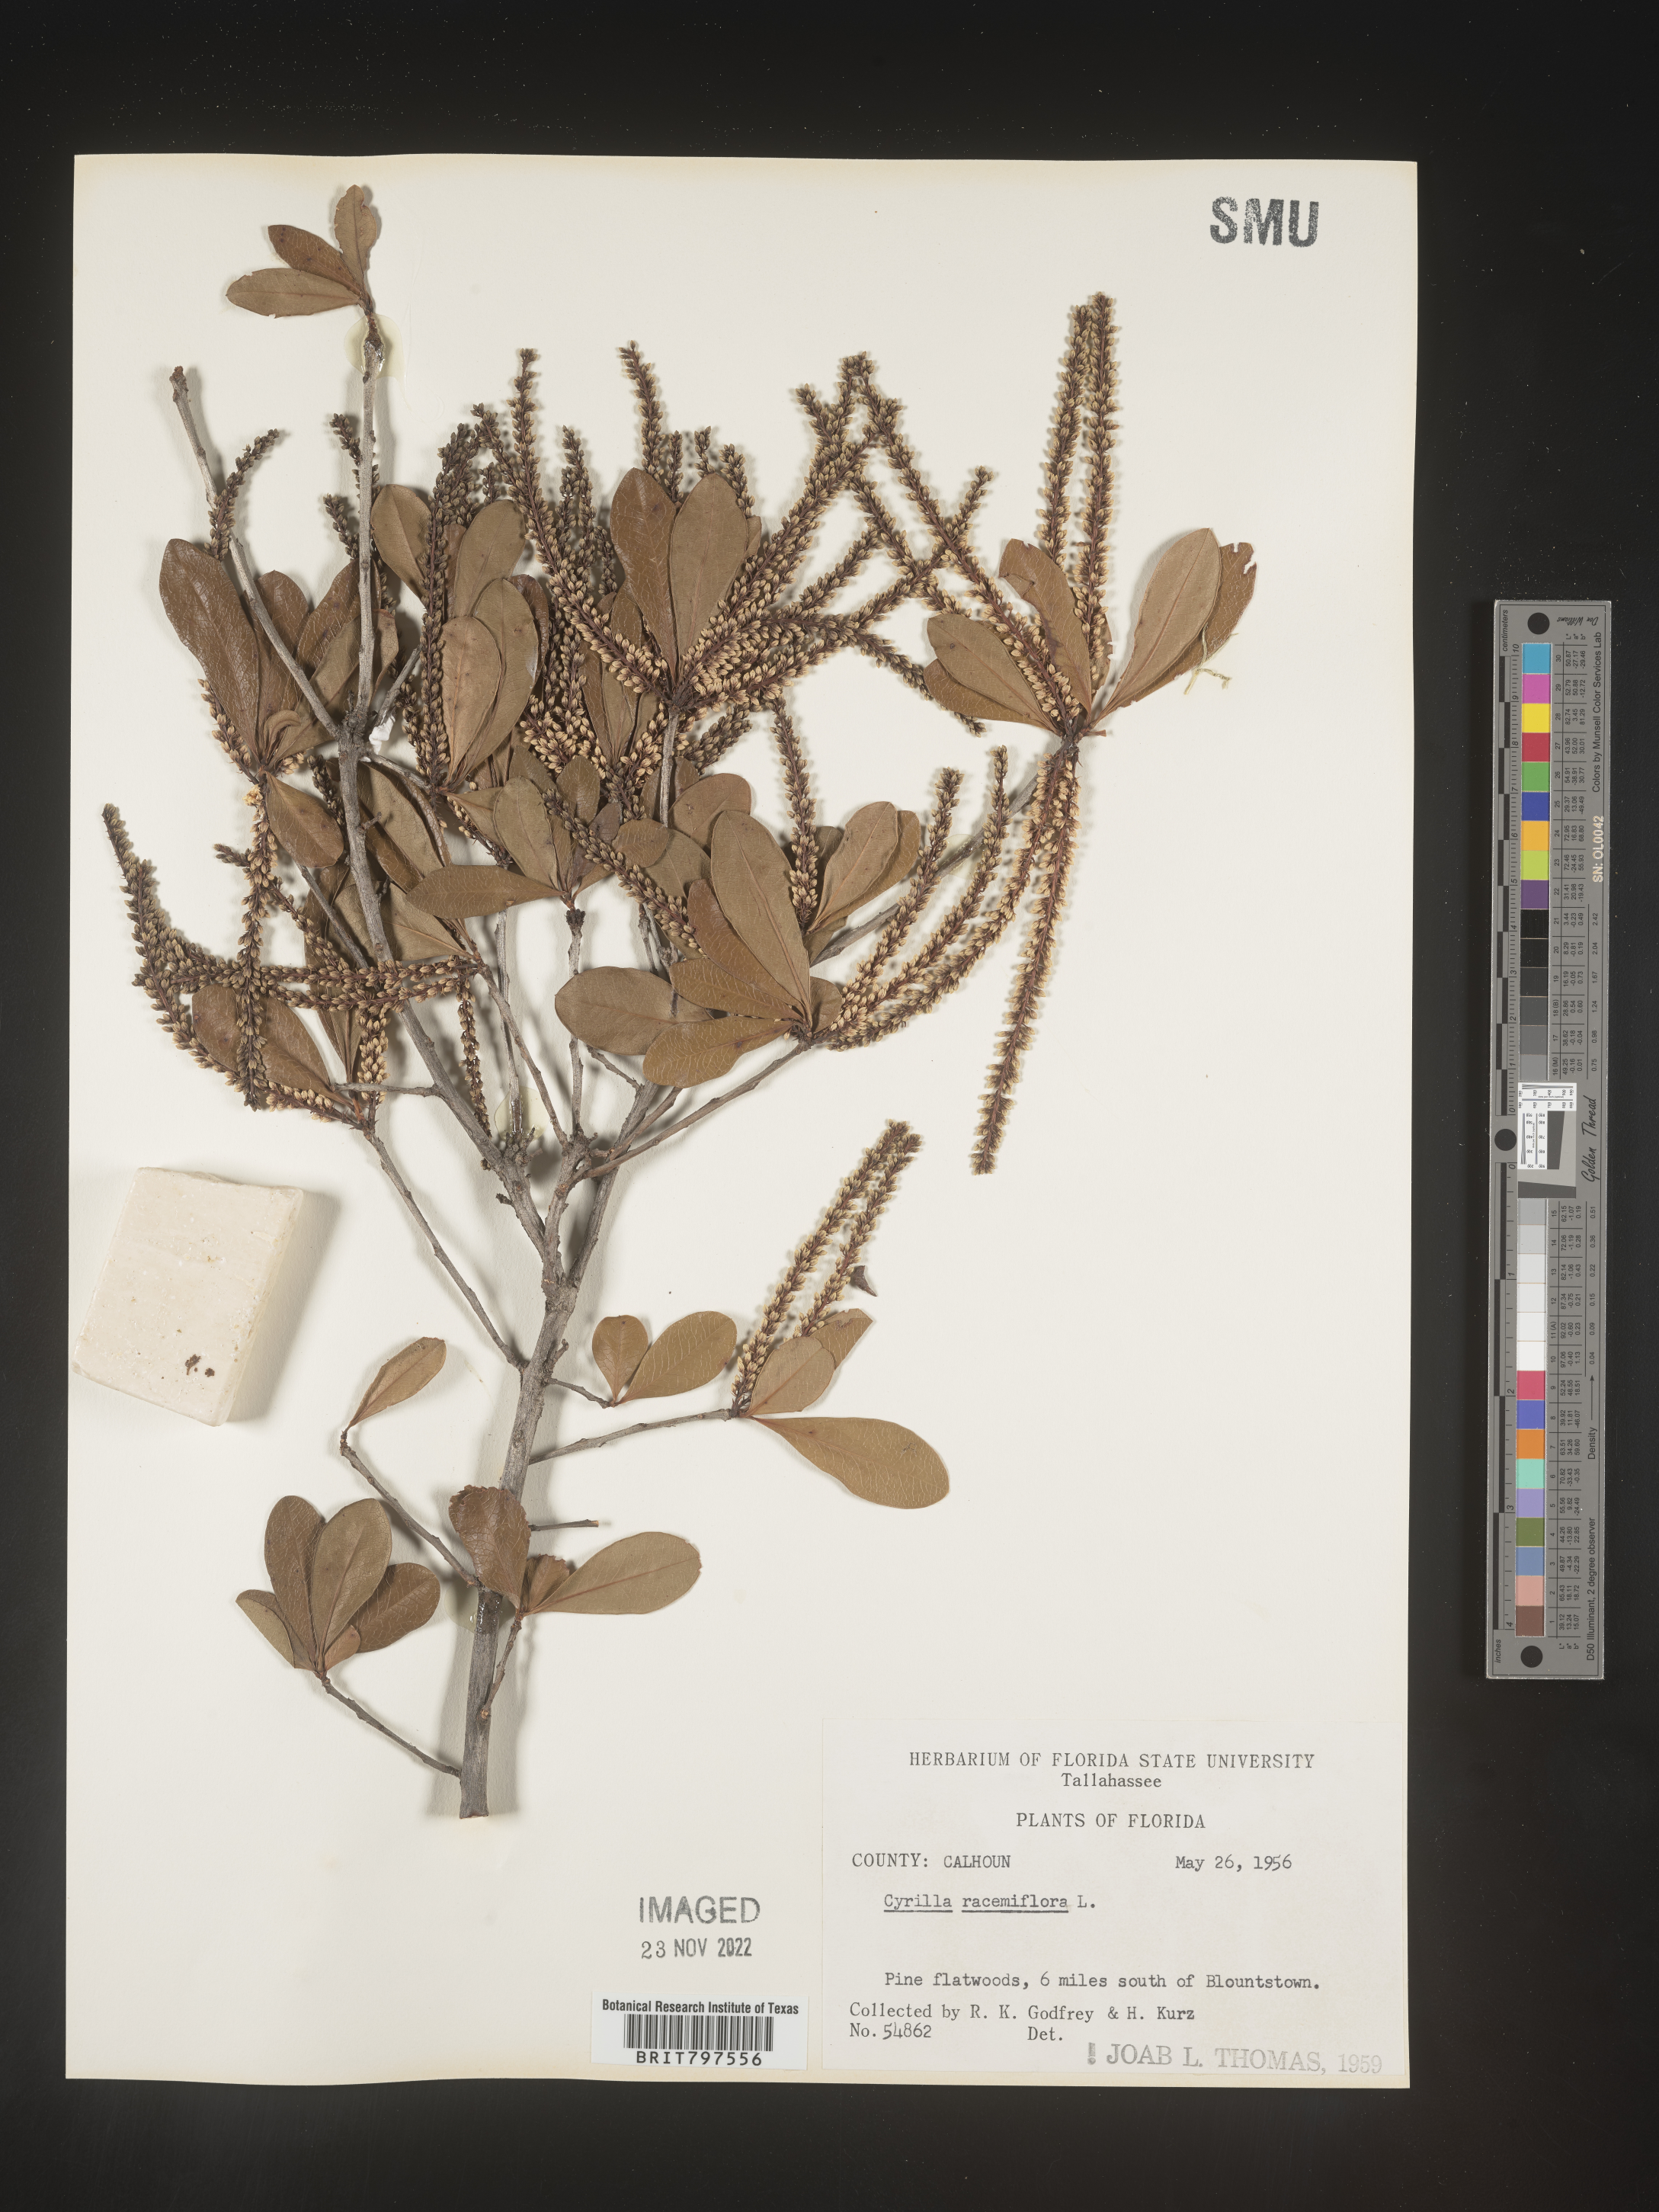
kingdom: Plantae
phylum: Tracheophyta
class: Magnoliopsida
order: Ericales
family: Cyrillaceae
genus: Cyrilla
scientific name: Cyrilla racemiflora
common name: Black titi
